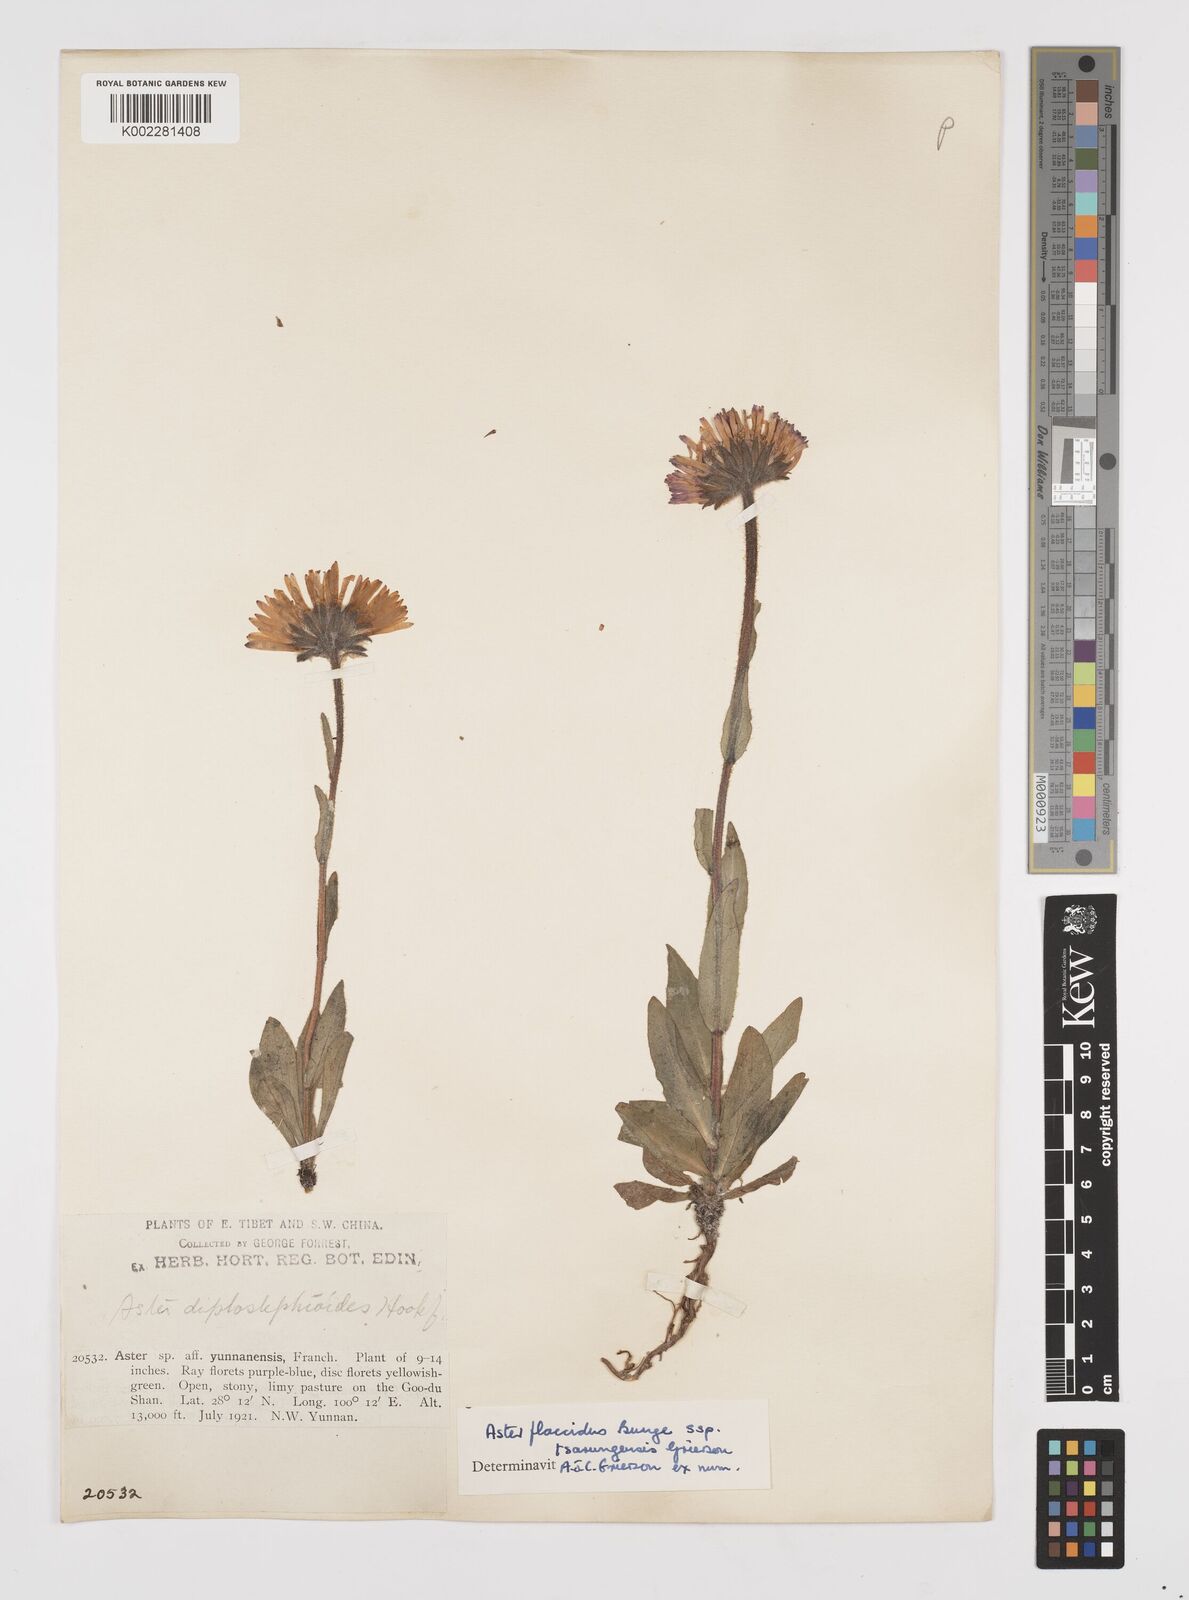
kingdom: Plantae
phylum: Tracheophyta
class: Magnoliopsida
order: Asterales
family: Asteraceae
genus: Tibetiodes
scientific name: Tibetiodes tsarungensis
